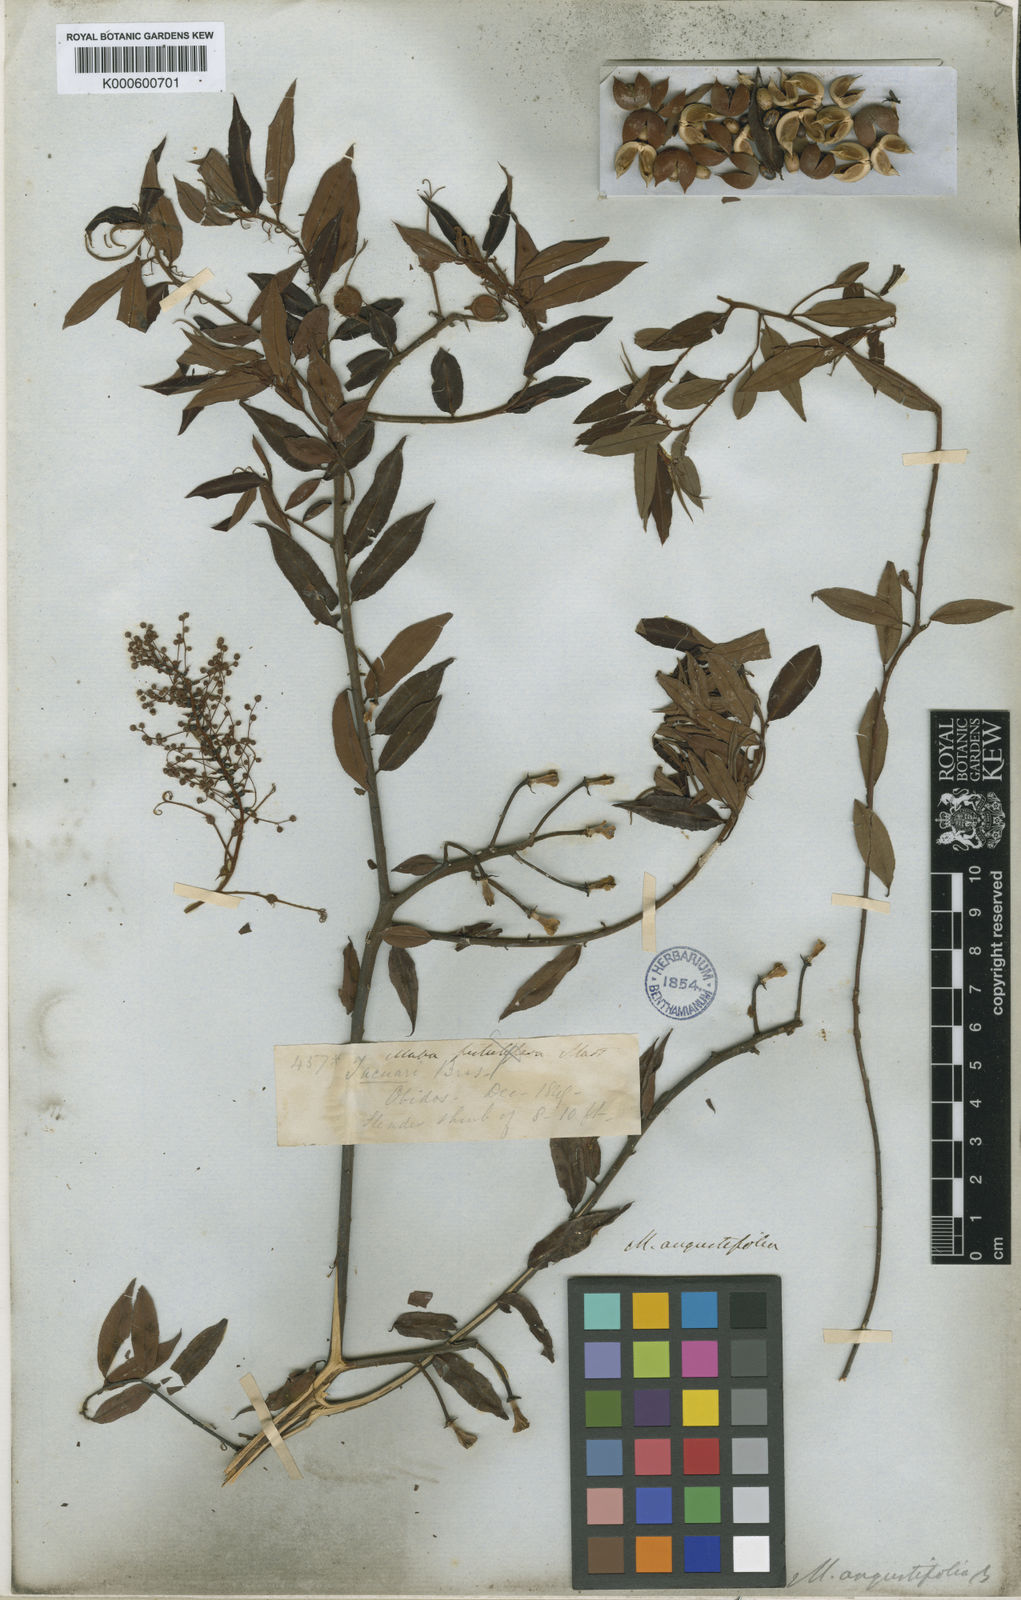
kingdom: Plantae
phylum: Tracheophyta
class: Magnoliopsida
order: Malpighiales
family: Euphorbiaceae
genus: Mabea
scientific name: Mabea angustifolia
